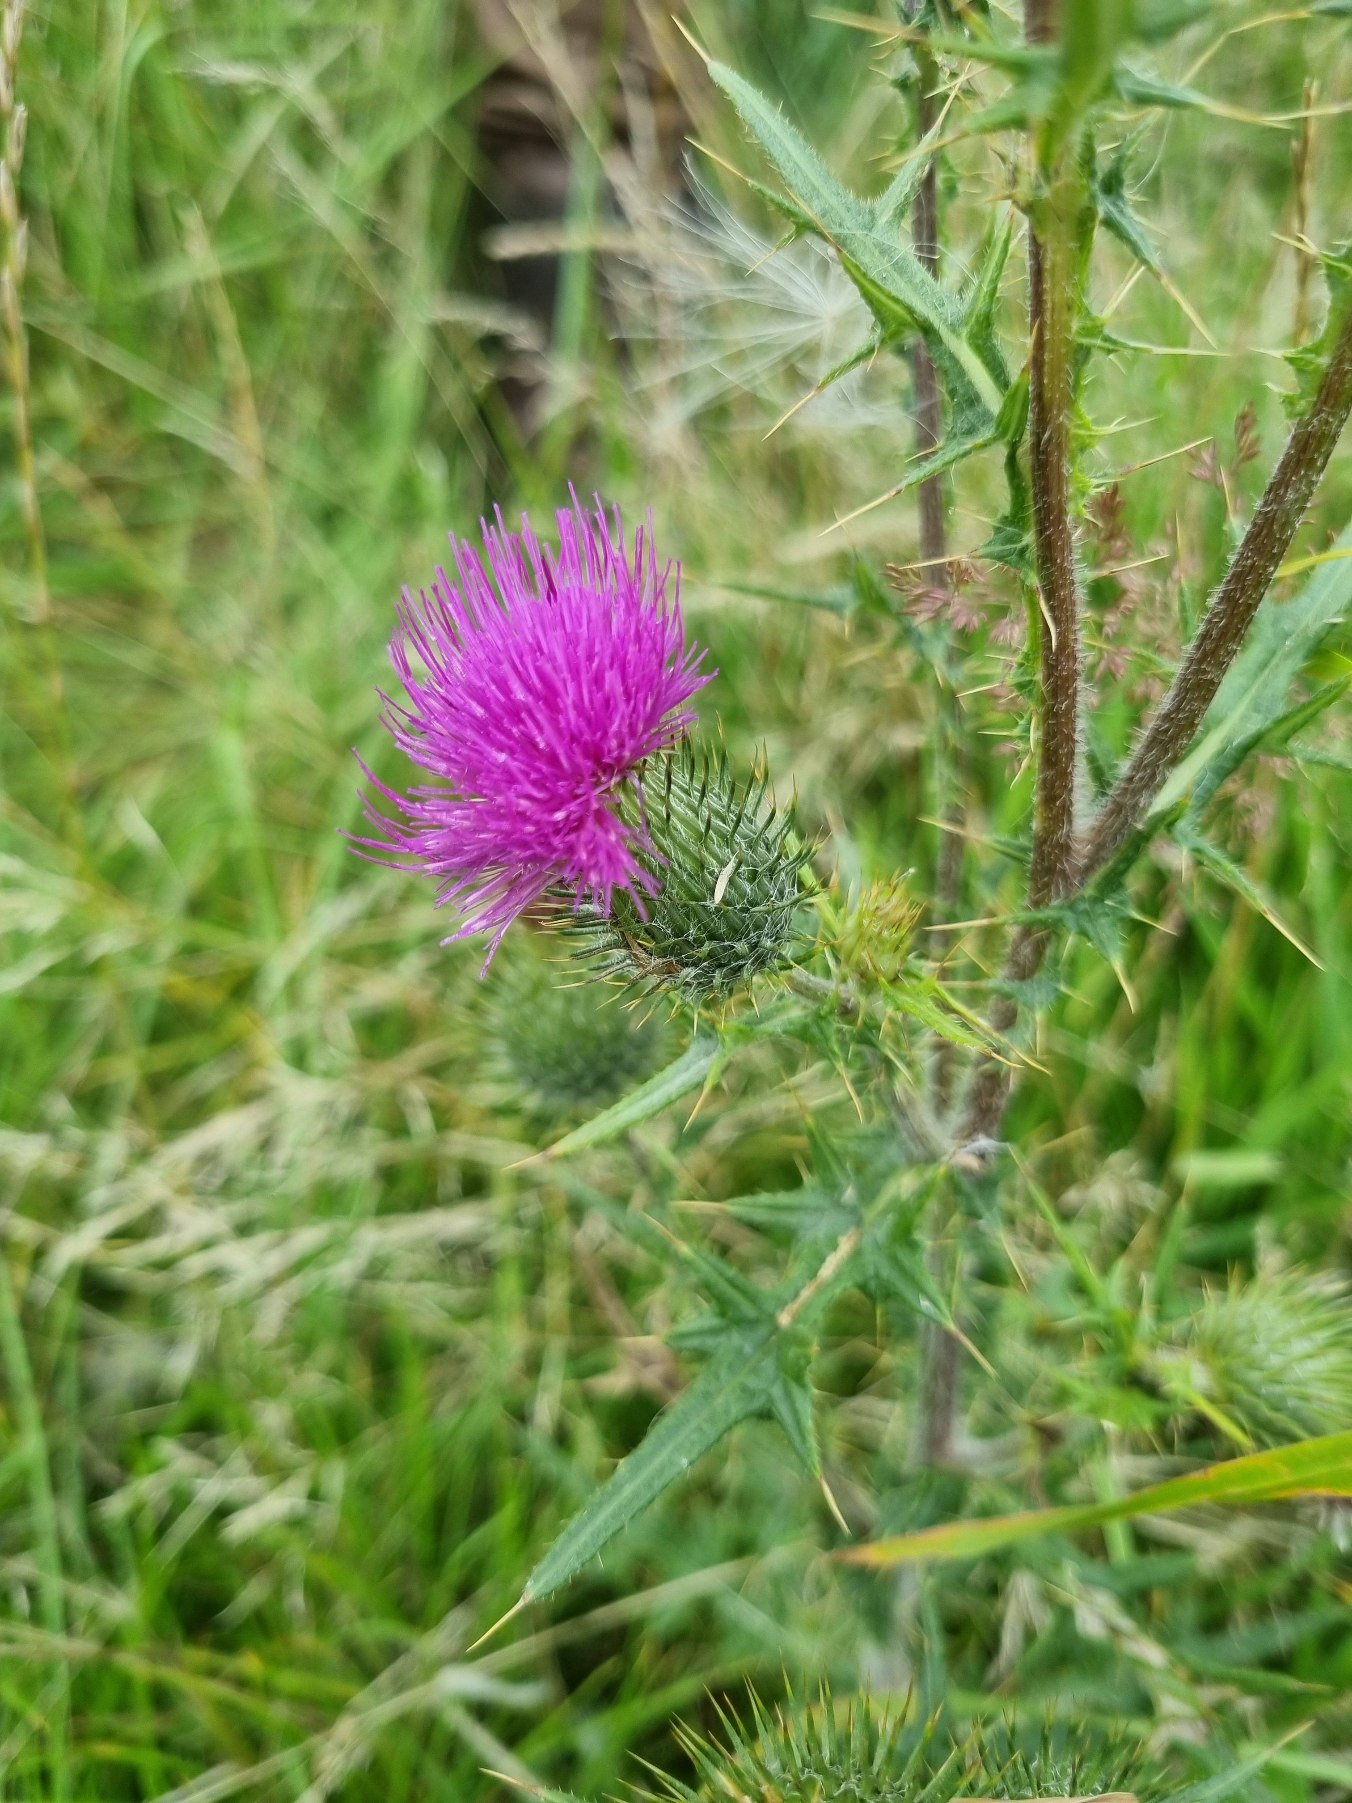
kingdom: Plantae
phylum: Tracheophyta
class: Magnoliopsida
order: Asterales
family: Asteraceae
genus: Cirsium
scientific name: Cirsium vulgare
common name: Horse-tidsel
